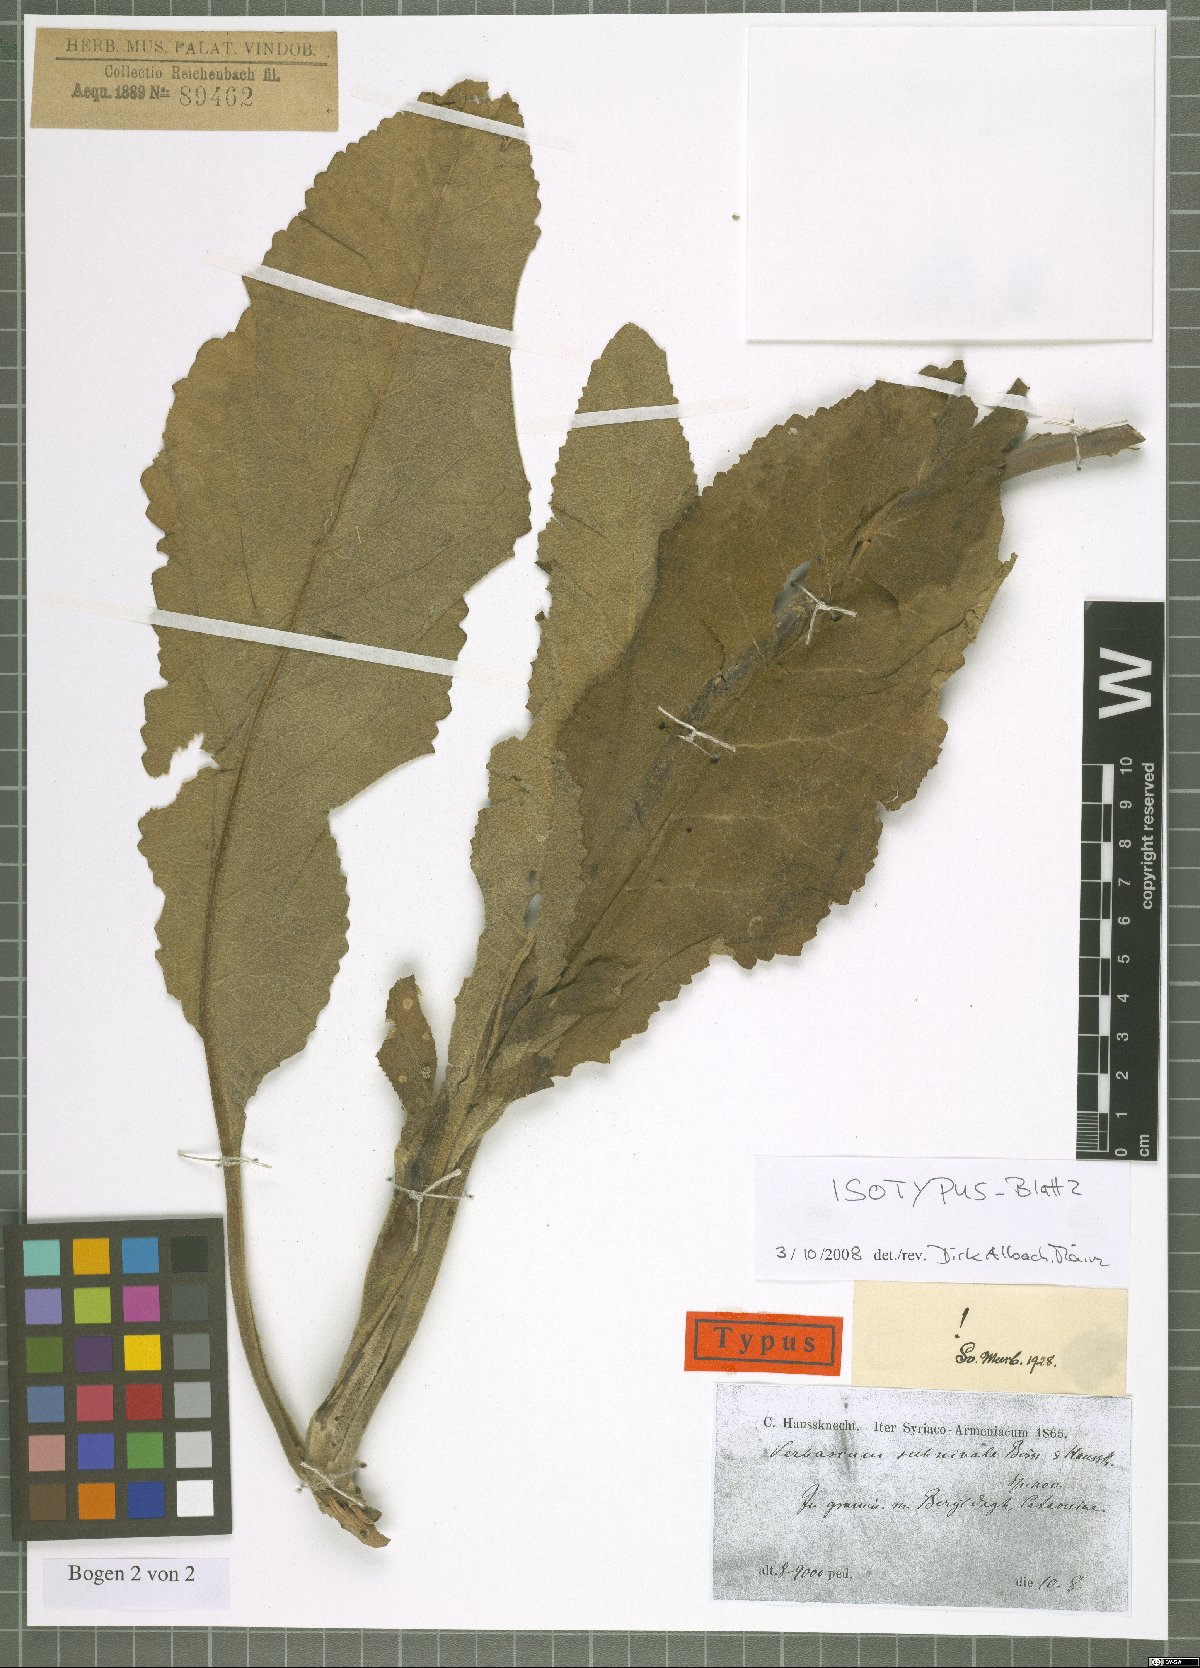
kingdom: Plantae
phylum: Tracheophyta
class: Magnoliopsida
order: Lamiales
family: Scrophulariaceae
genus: Verbascum
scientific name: Verbascum subnivale
